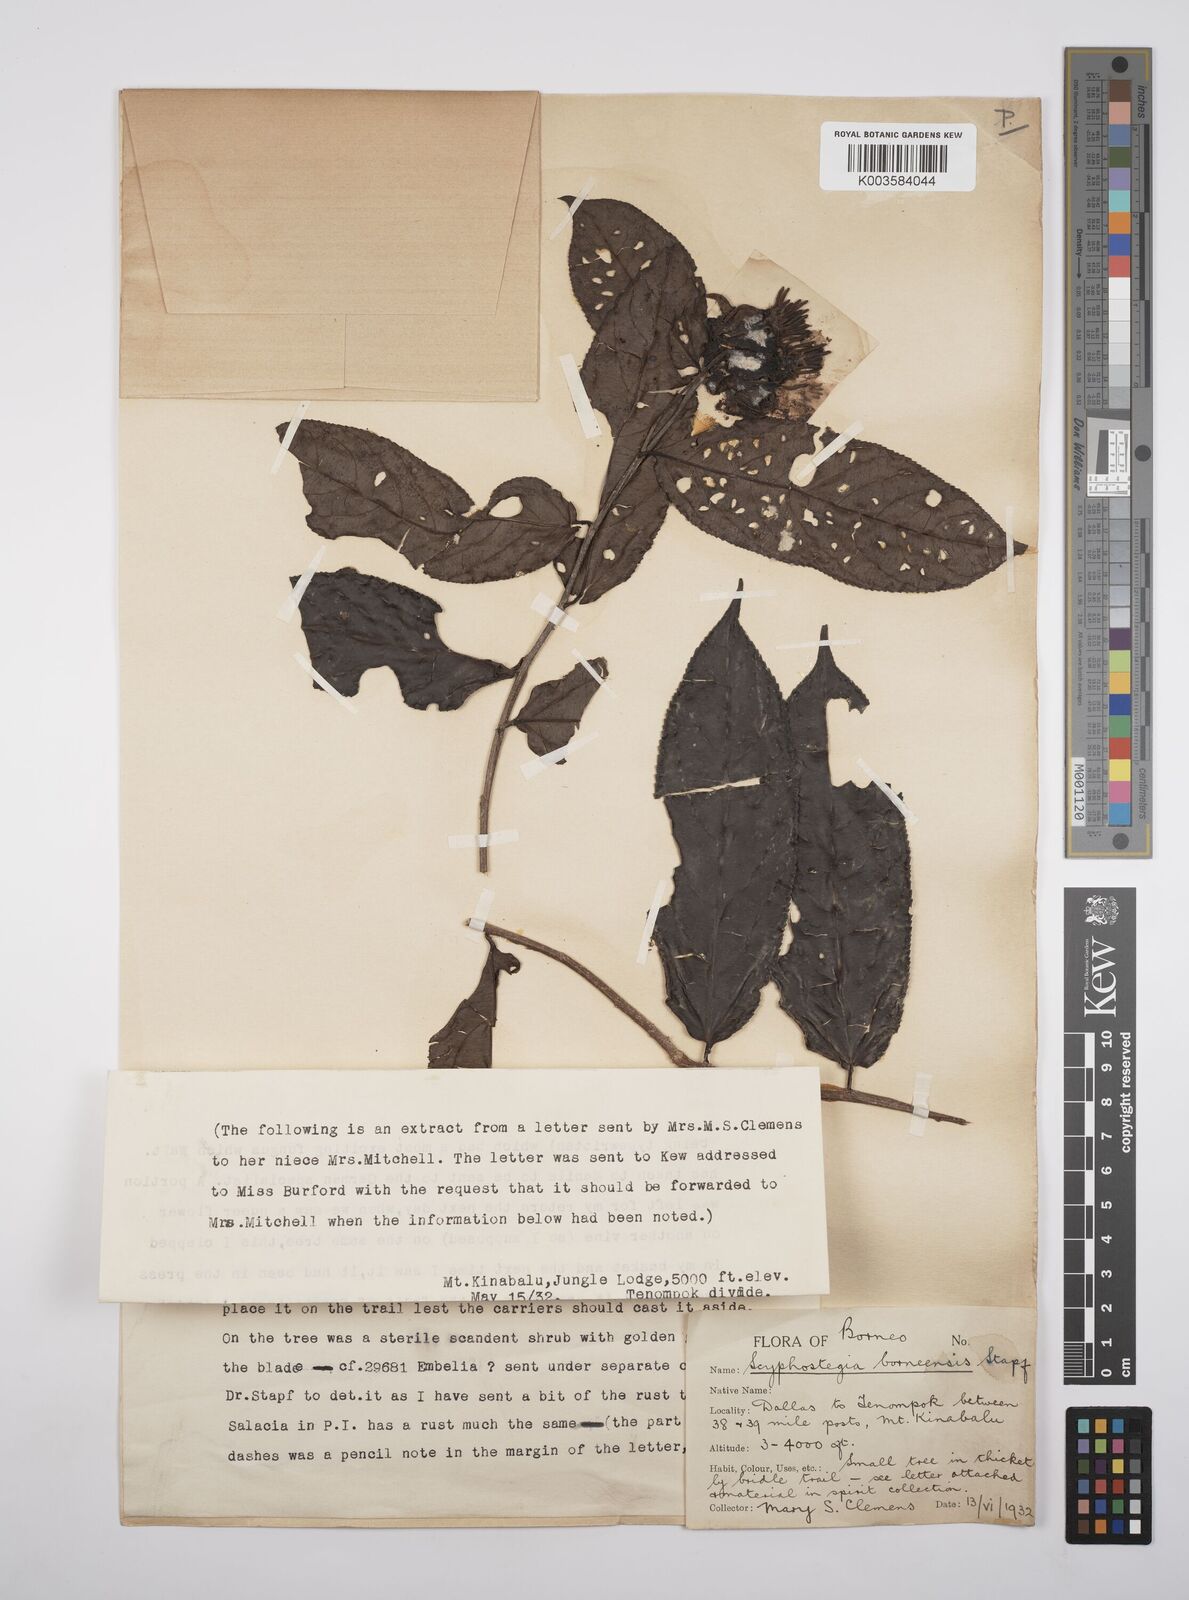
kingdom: Plantae
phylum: Tracheophyta
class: Magnoliopsida
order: Malpighiales
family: Salicaceae
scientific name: Salicaceae
